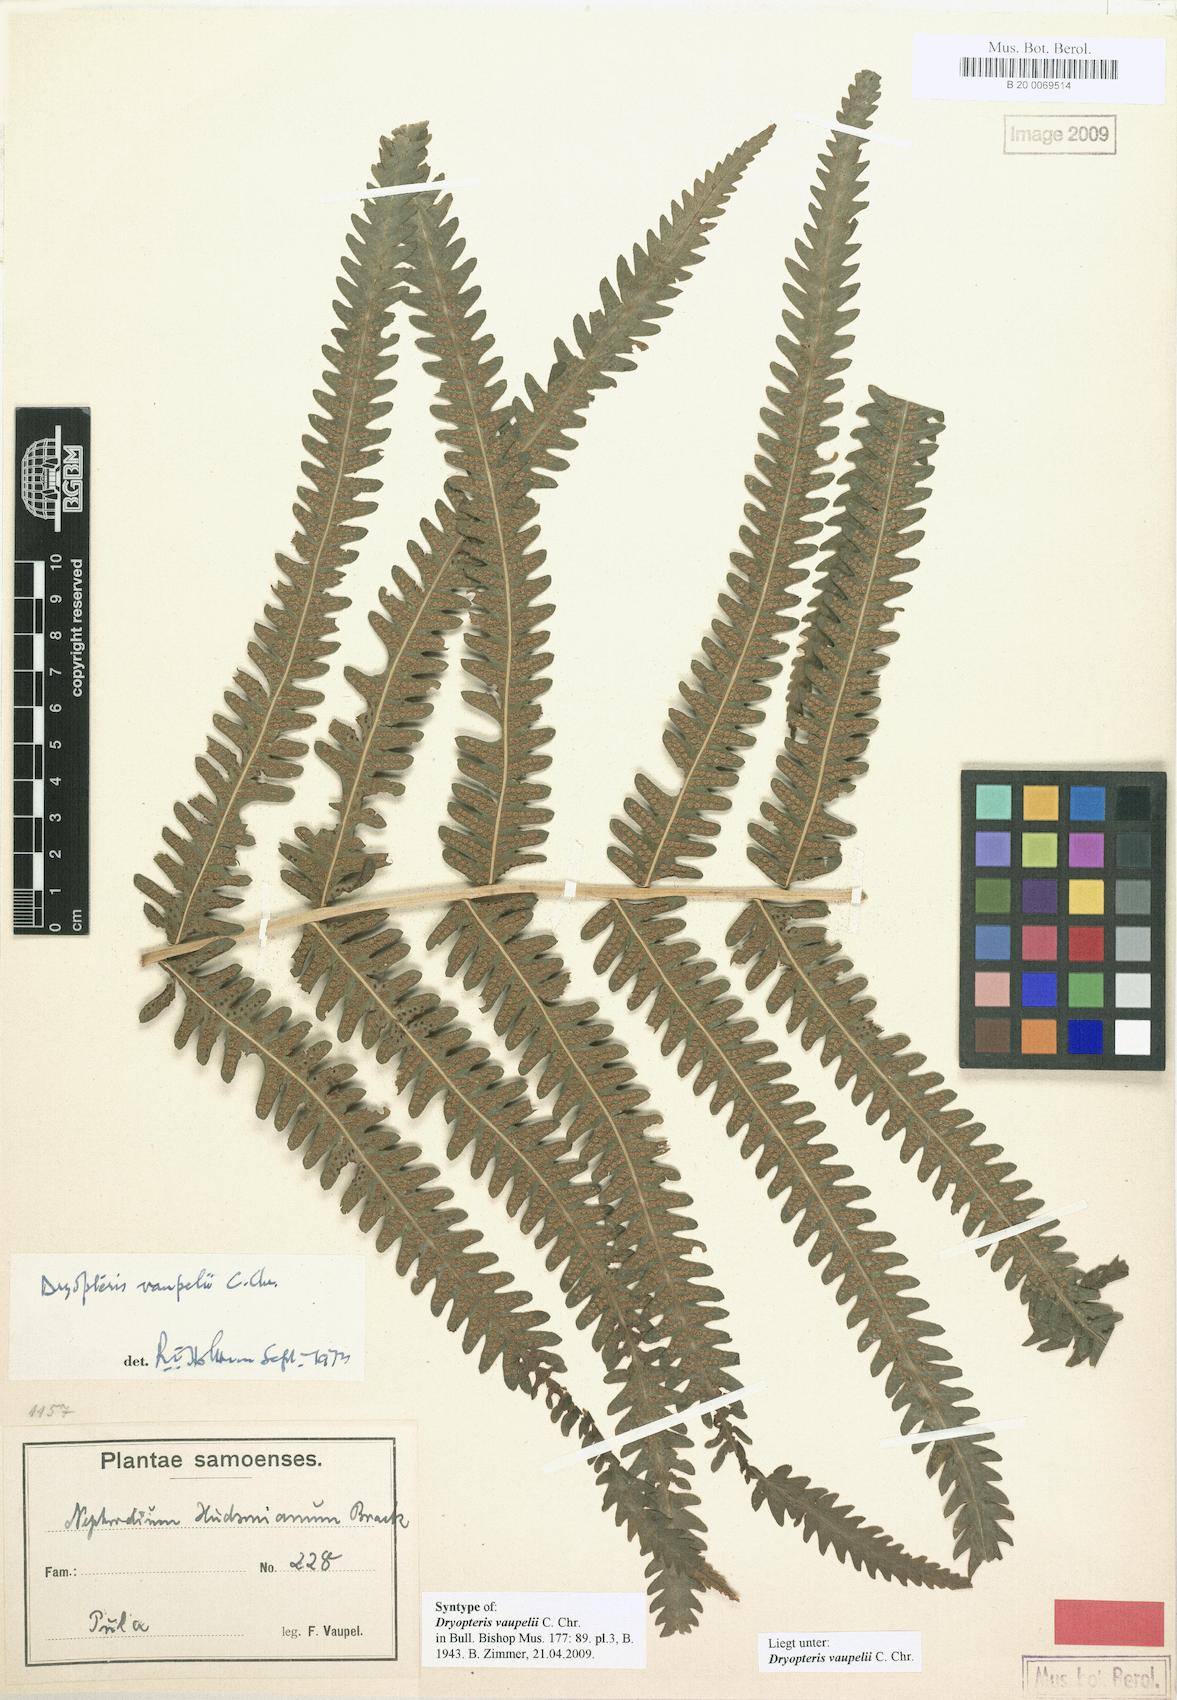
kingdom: Plantae
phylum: Tracheophyta
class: Polypodiopsida
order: Polypodiales
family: Thelypteridaceae
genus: Reholttumia
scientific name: Reholttumia vaupelii
